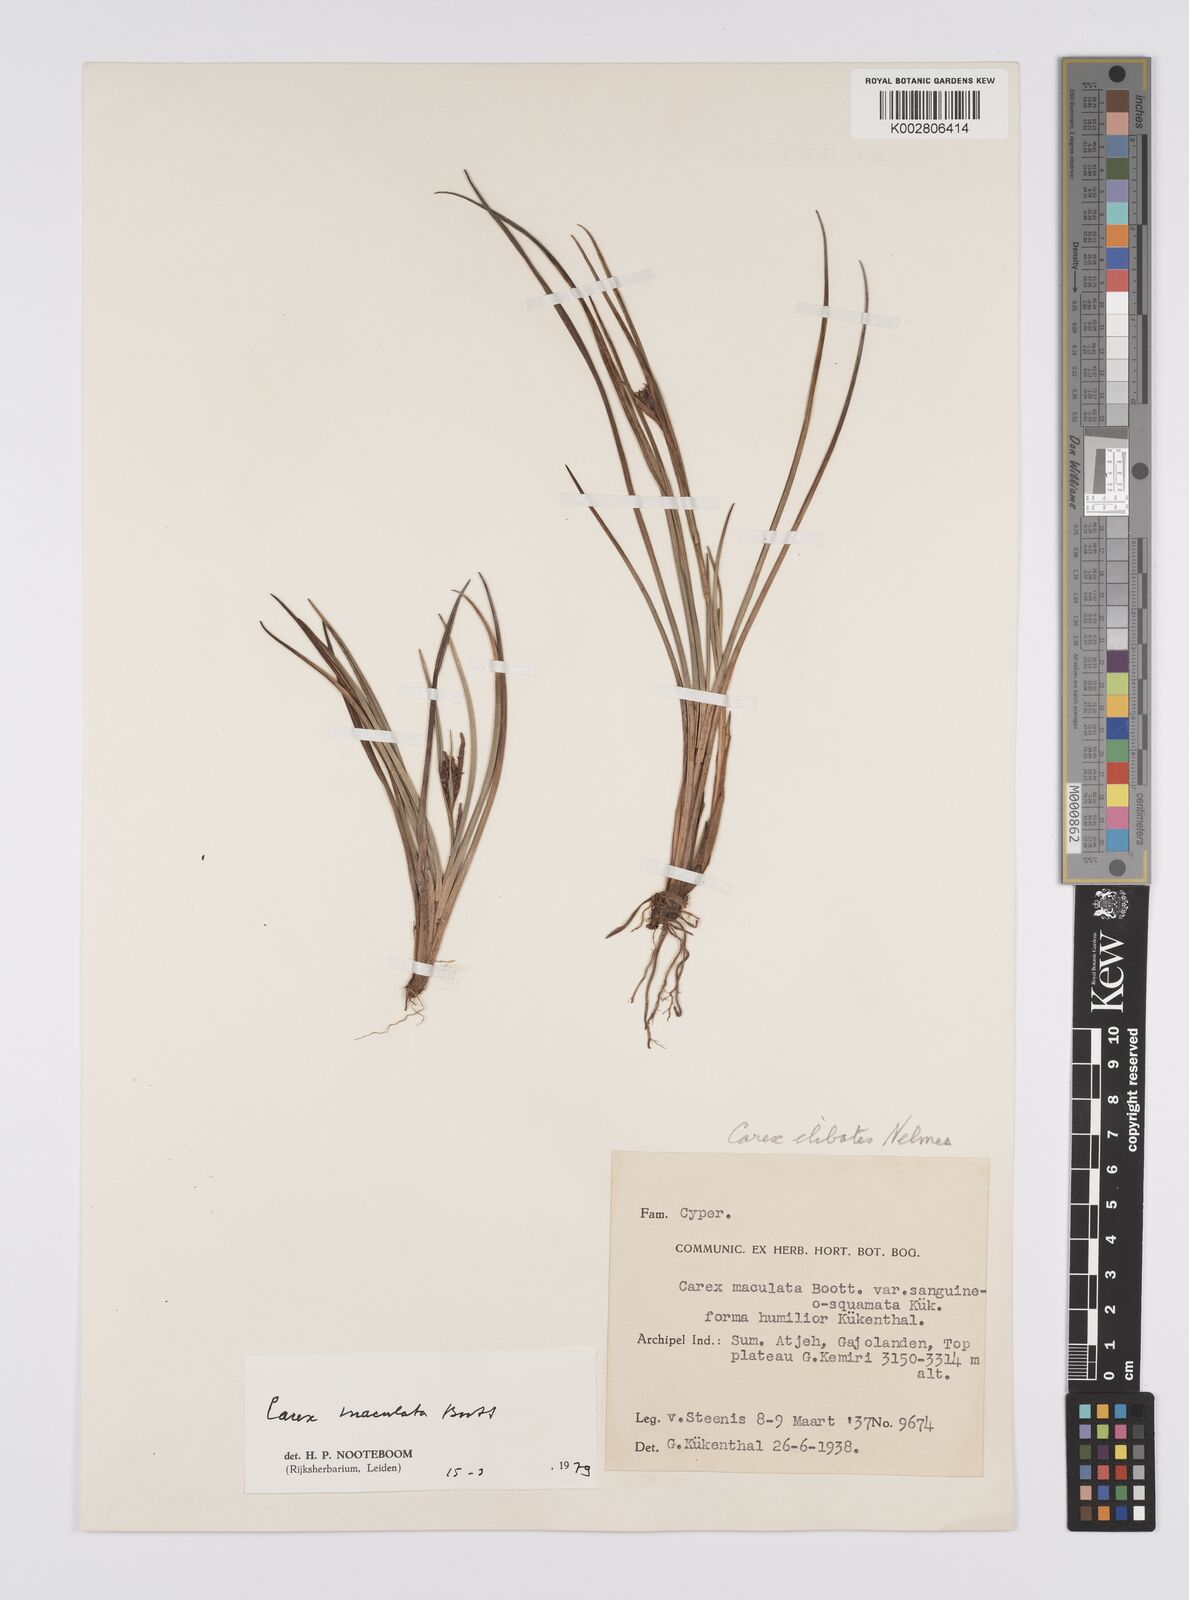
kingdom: Plantae
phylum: Tracheophyta
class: Liliopsida
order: Poales
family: Cyperaceae
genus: Carex
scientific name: Carex maculata
